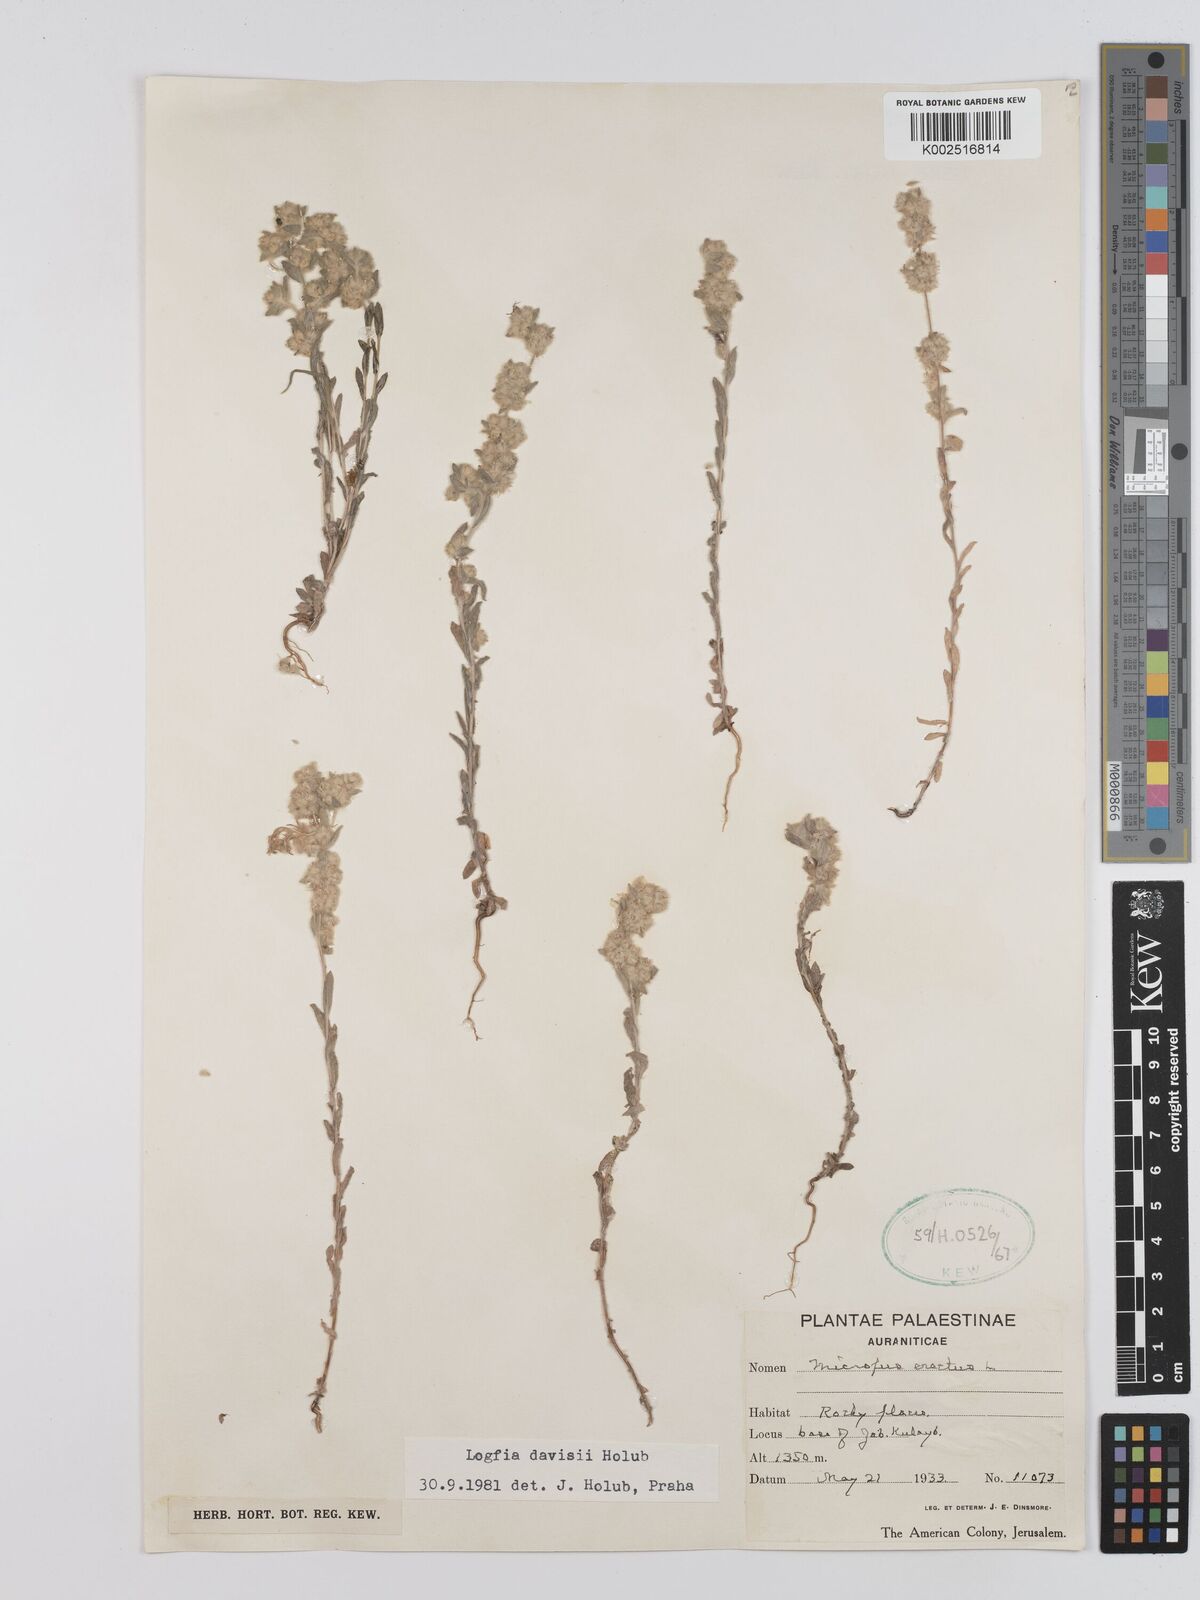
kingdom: Plantae
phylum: Tracheophyta
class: Magnoliopsida
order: Asterales
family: Asteraceae
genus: Filago
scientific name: Filago arvensis
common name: Field cudweed
